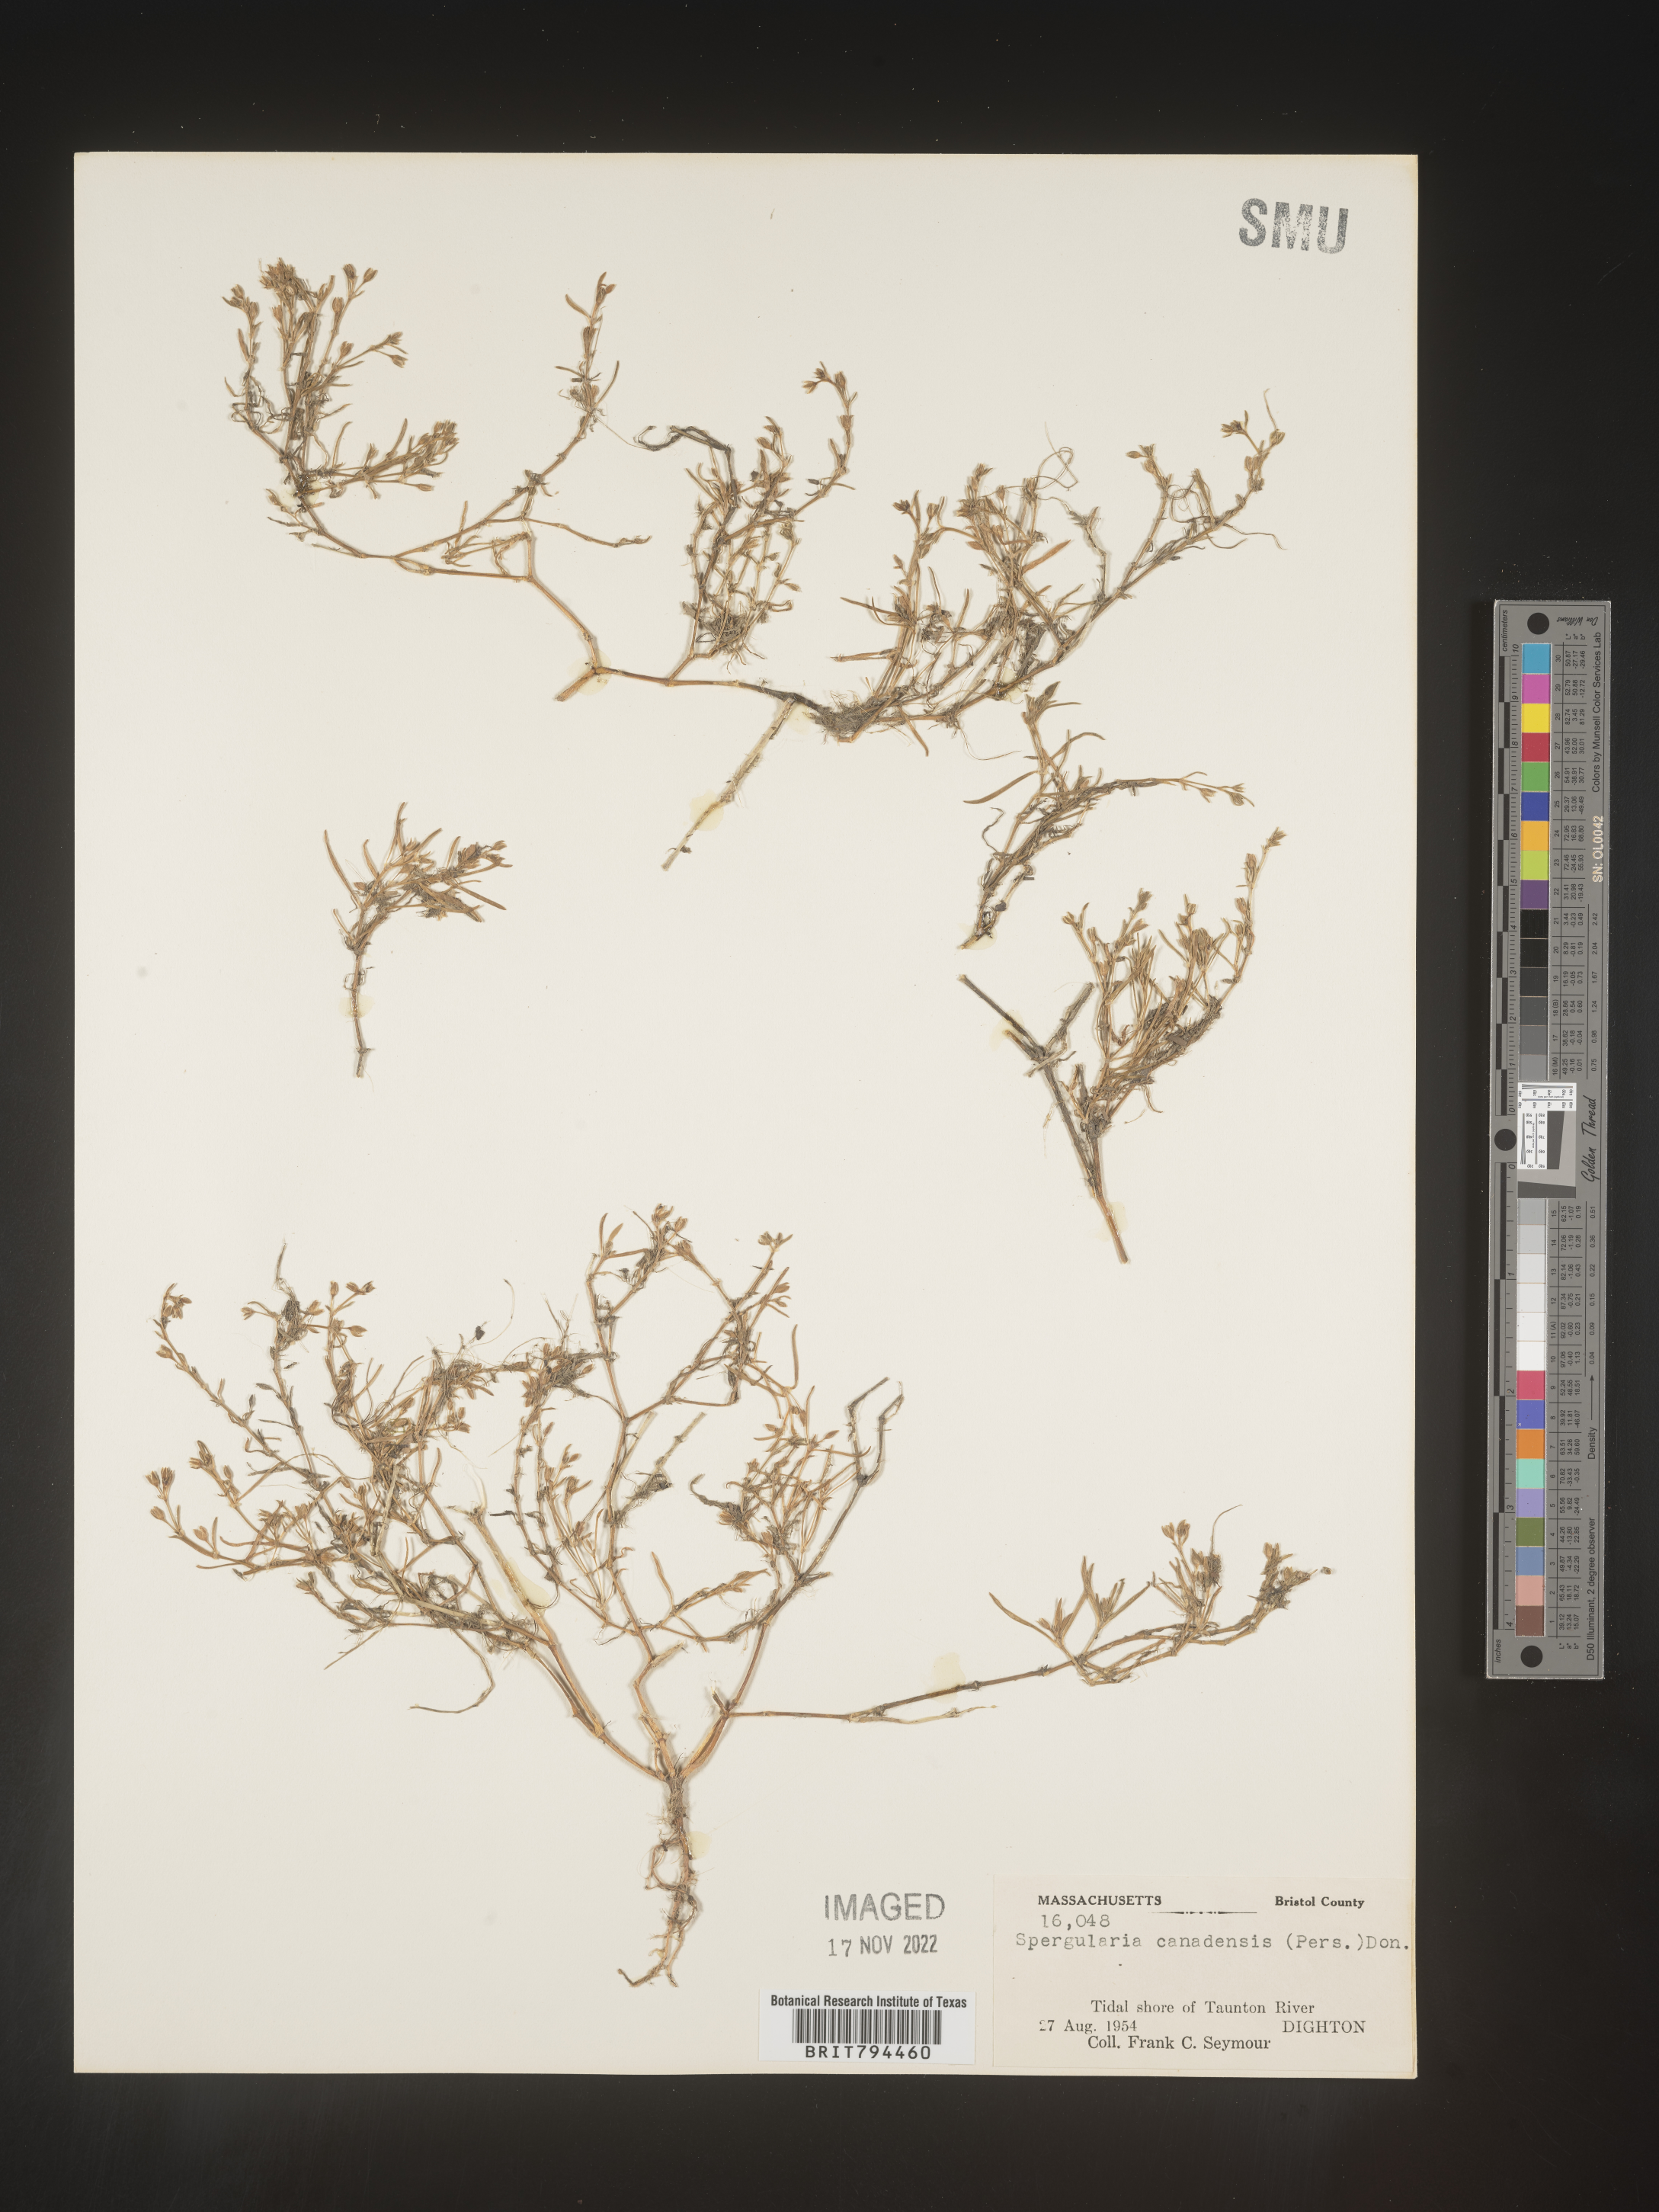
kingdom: Plantae
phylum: Tracheophyta
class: Magnoliopsida
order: Caryophyllales
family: Caryophyllaceae
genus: Spergularia
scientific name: Spergularia canadensis
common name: Canada sand-spurrey
